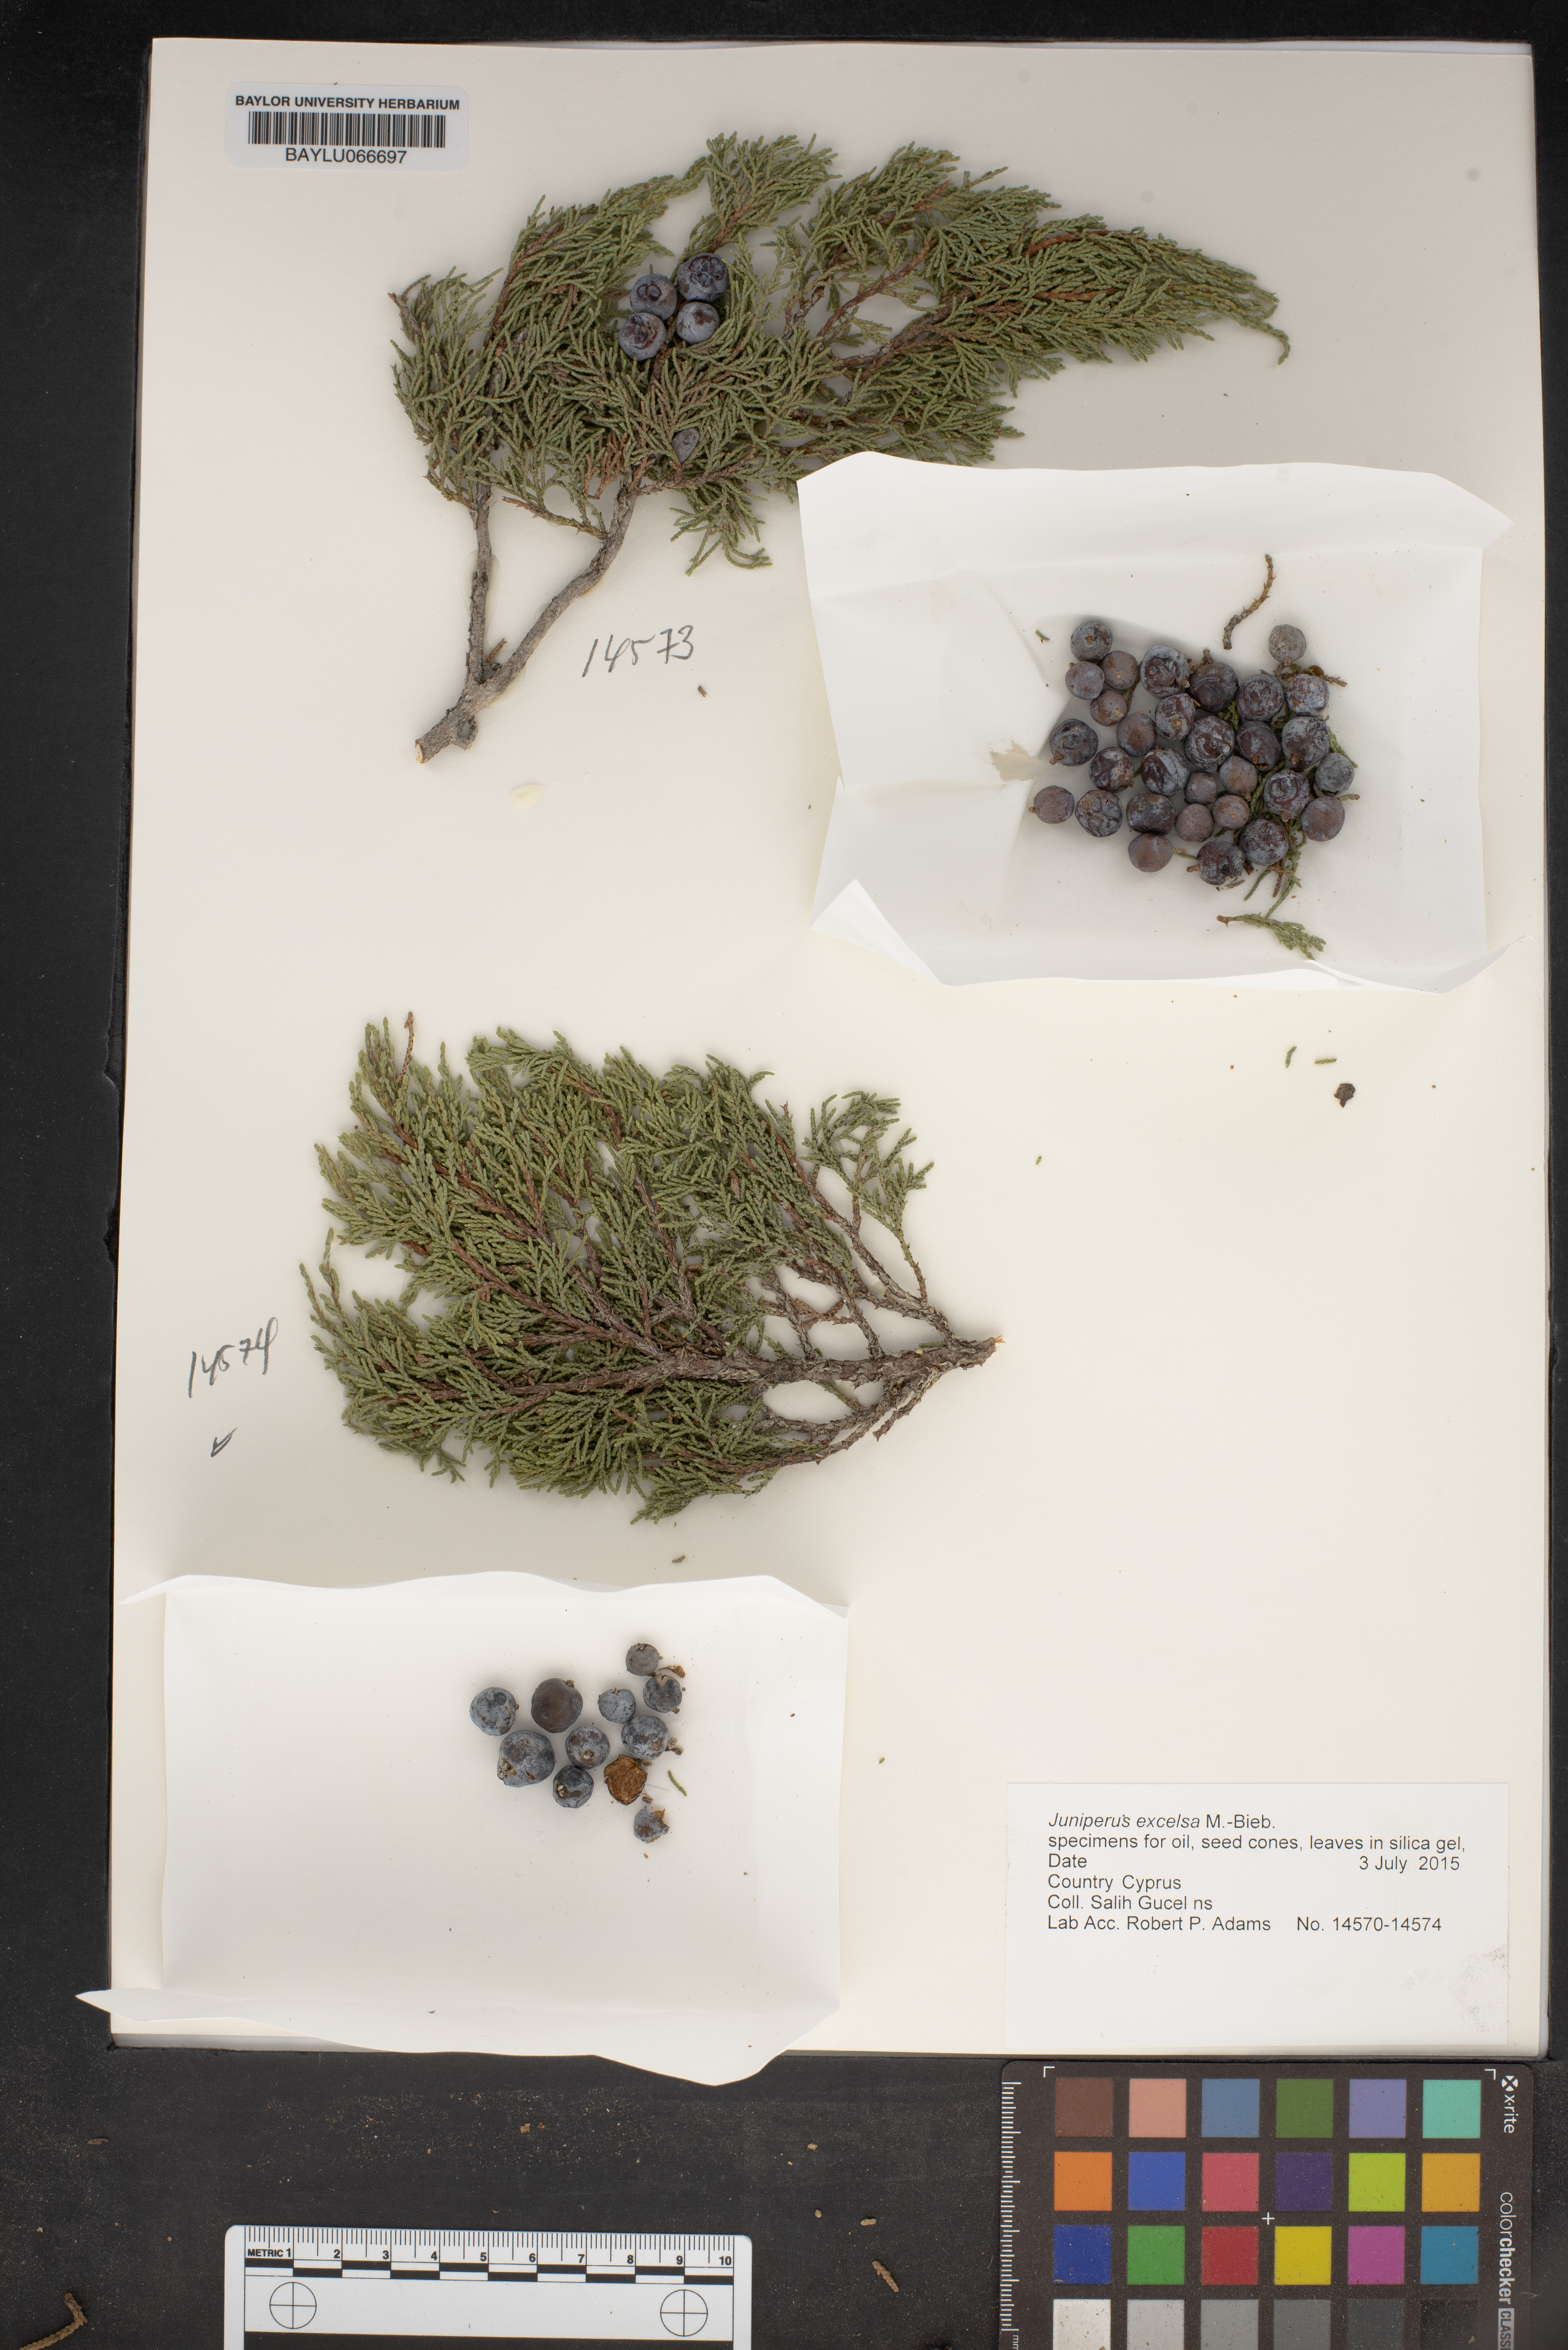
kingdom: Plantae
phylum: Tracheophyta
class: Pinopsida
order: Pinales
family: Cupressaceae
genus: Juniperus
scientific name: Juniperus excelsa
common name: Crimean juniper
